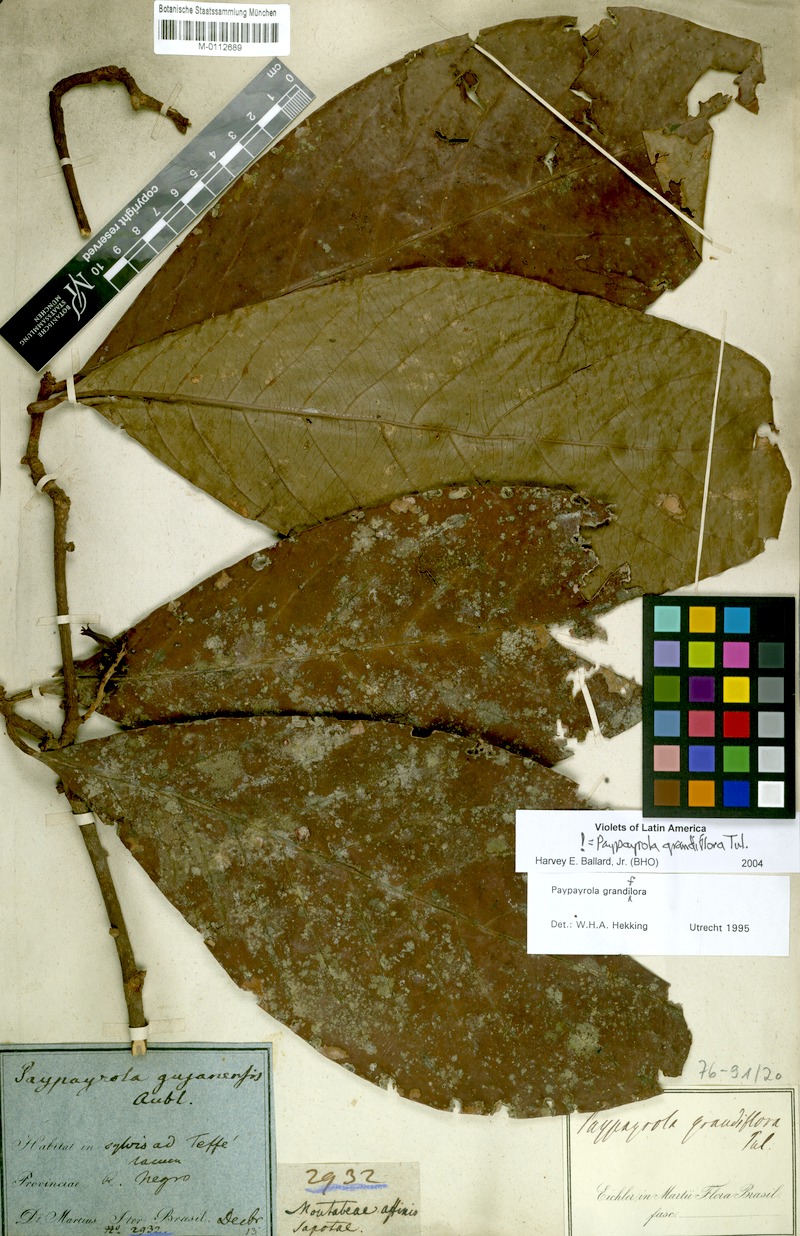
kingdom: Plantae
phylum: Tracheophyta
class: Magnoliopsida
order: Malpighiales
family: Violaceae
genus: Paypayrola
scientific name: Paypayrola grandiflora
